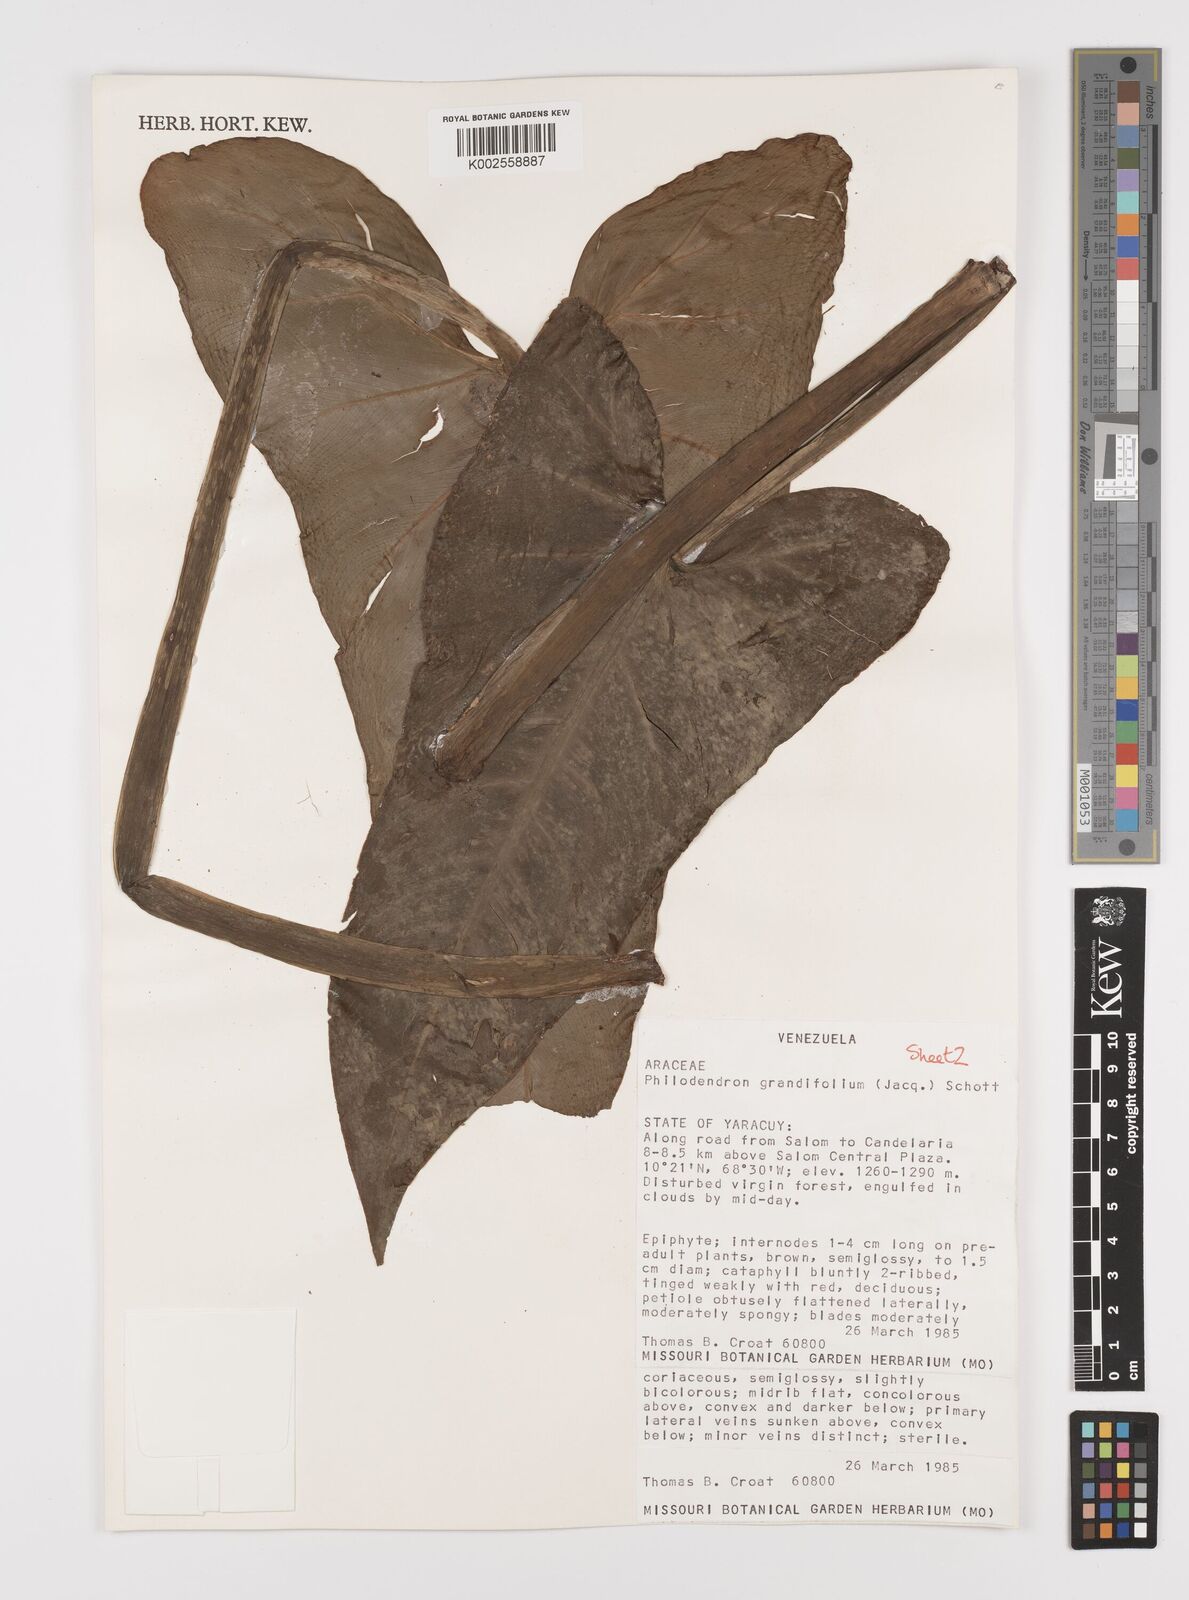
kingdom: Plantae
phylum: Tracheophyta
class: Liliopsida
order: Alismatales
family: Araceae
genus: Philodendron
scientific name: Philodendron grandifolium
